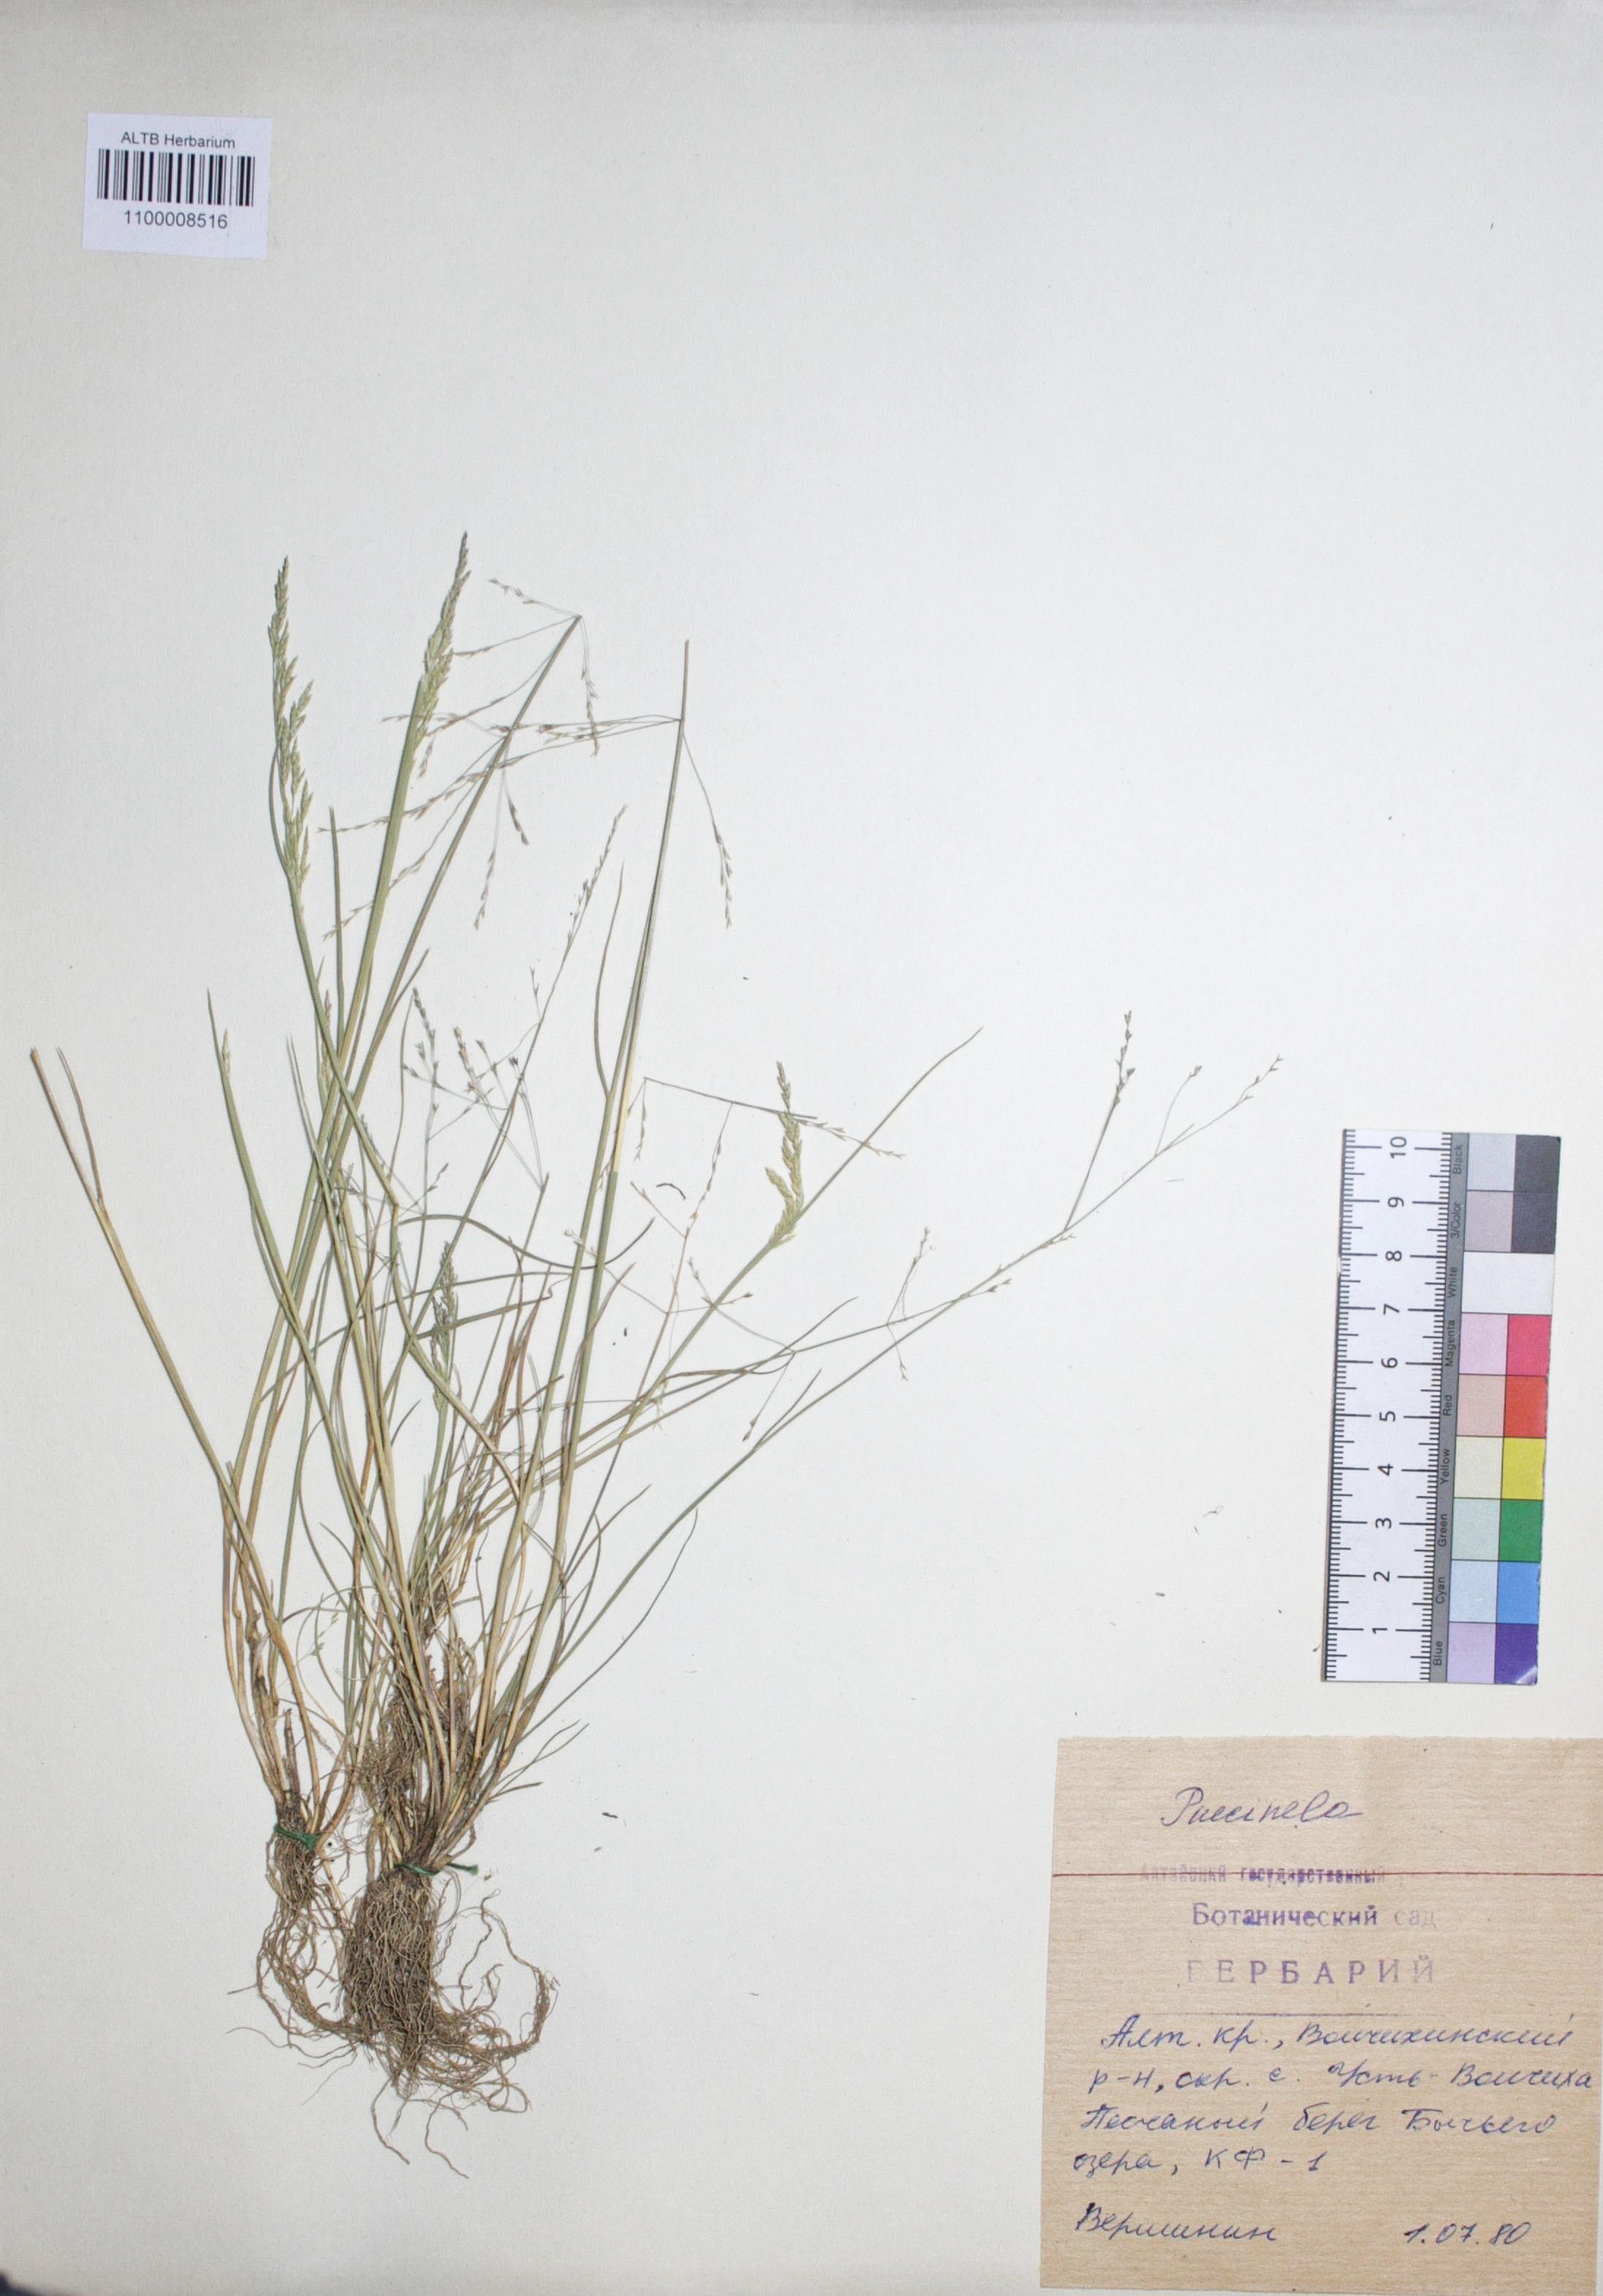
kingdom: Plantae
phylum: Tracheophyta
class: Liliopsida
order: Poales
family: Poaceae
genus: Puccinellia
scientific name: Puccinellia tenuissima
